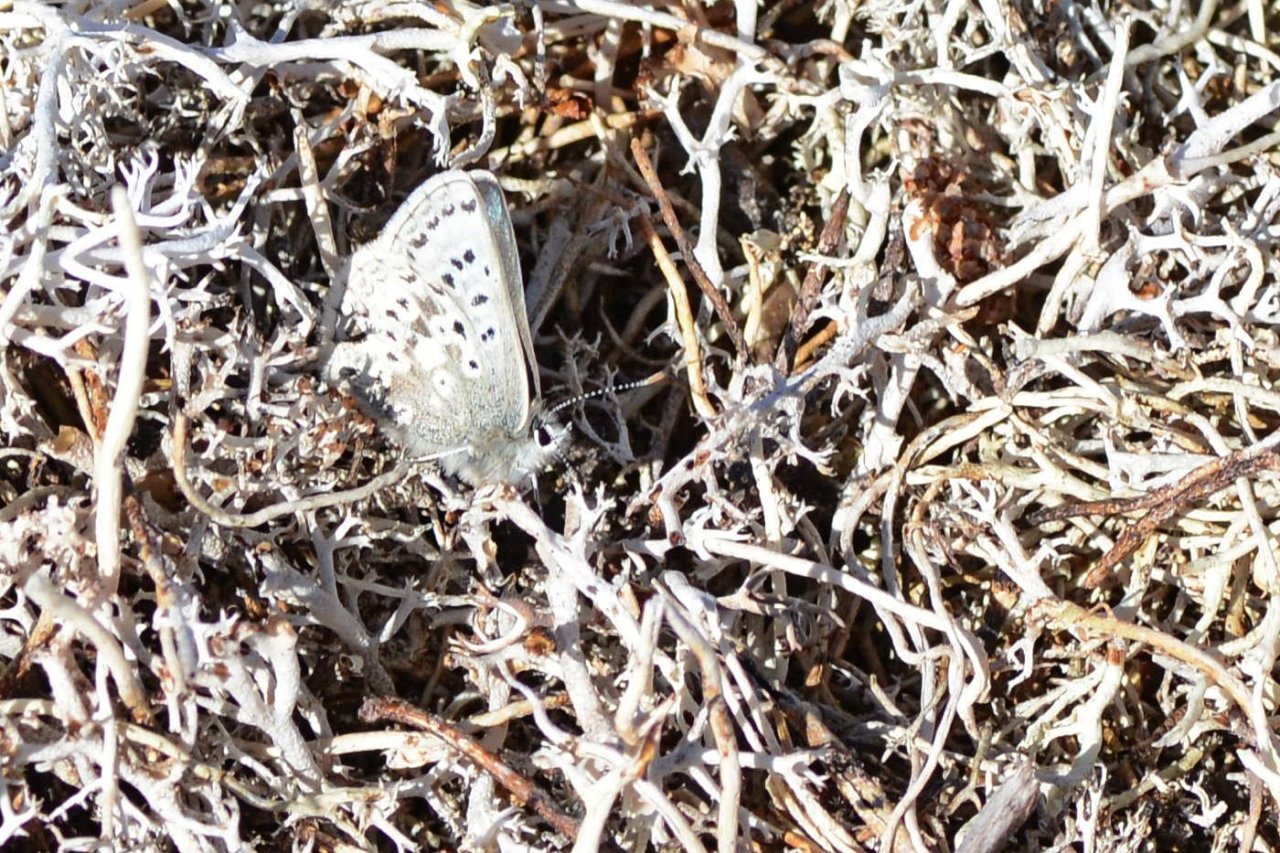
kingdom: Animalia
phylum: Arthropoda
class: Insecta
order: Lepidoptera
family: Lycaenidae
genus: Agriades
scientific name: Agriades glandon
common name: Arctic Blue
